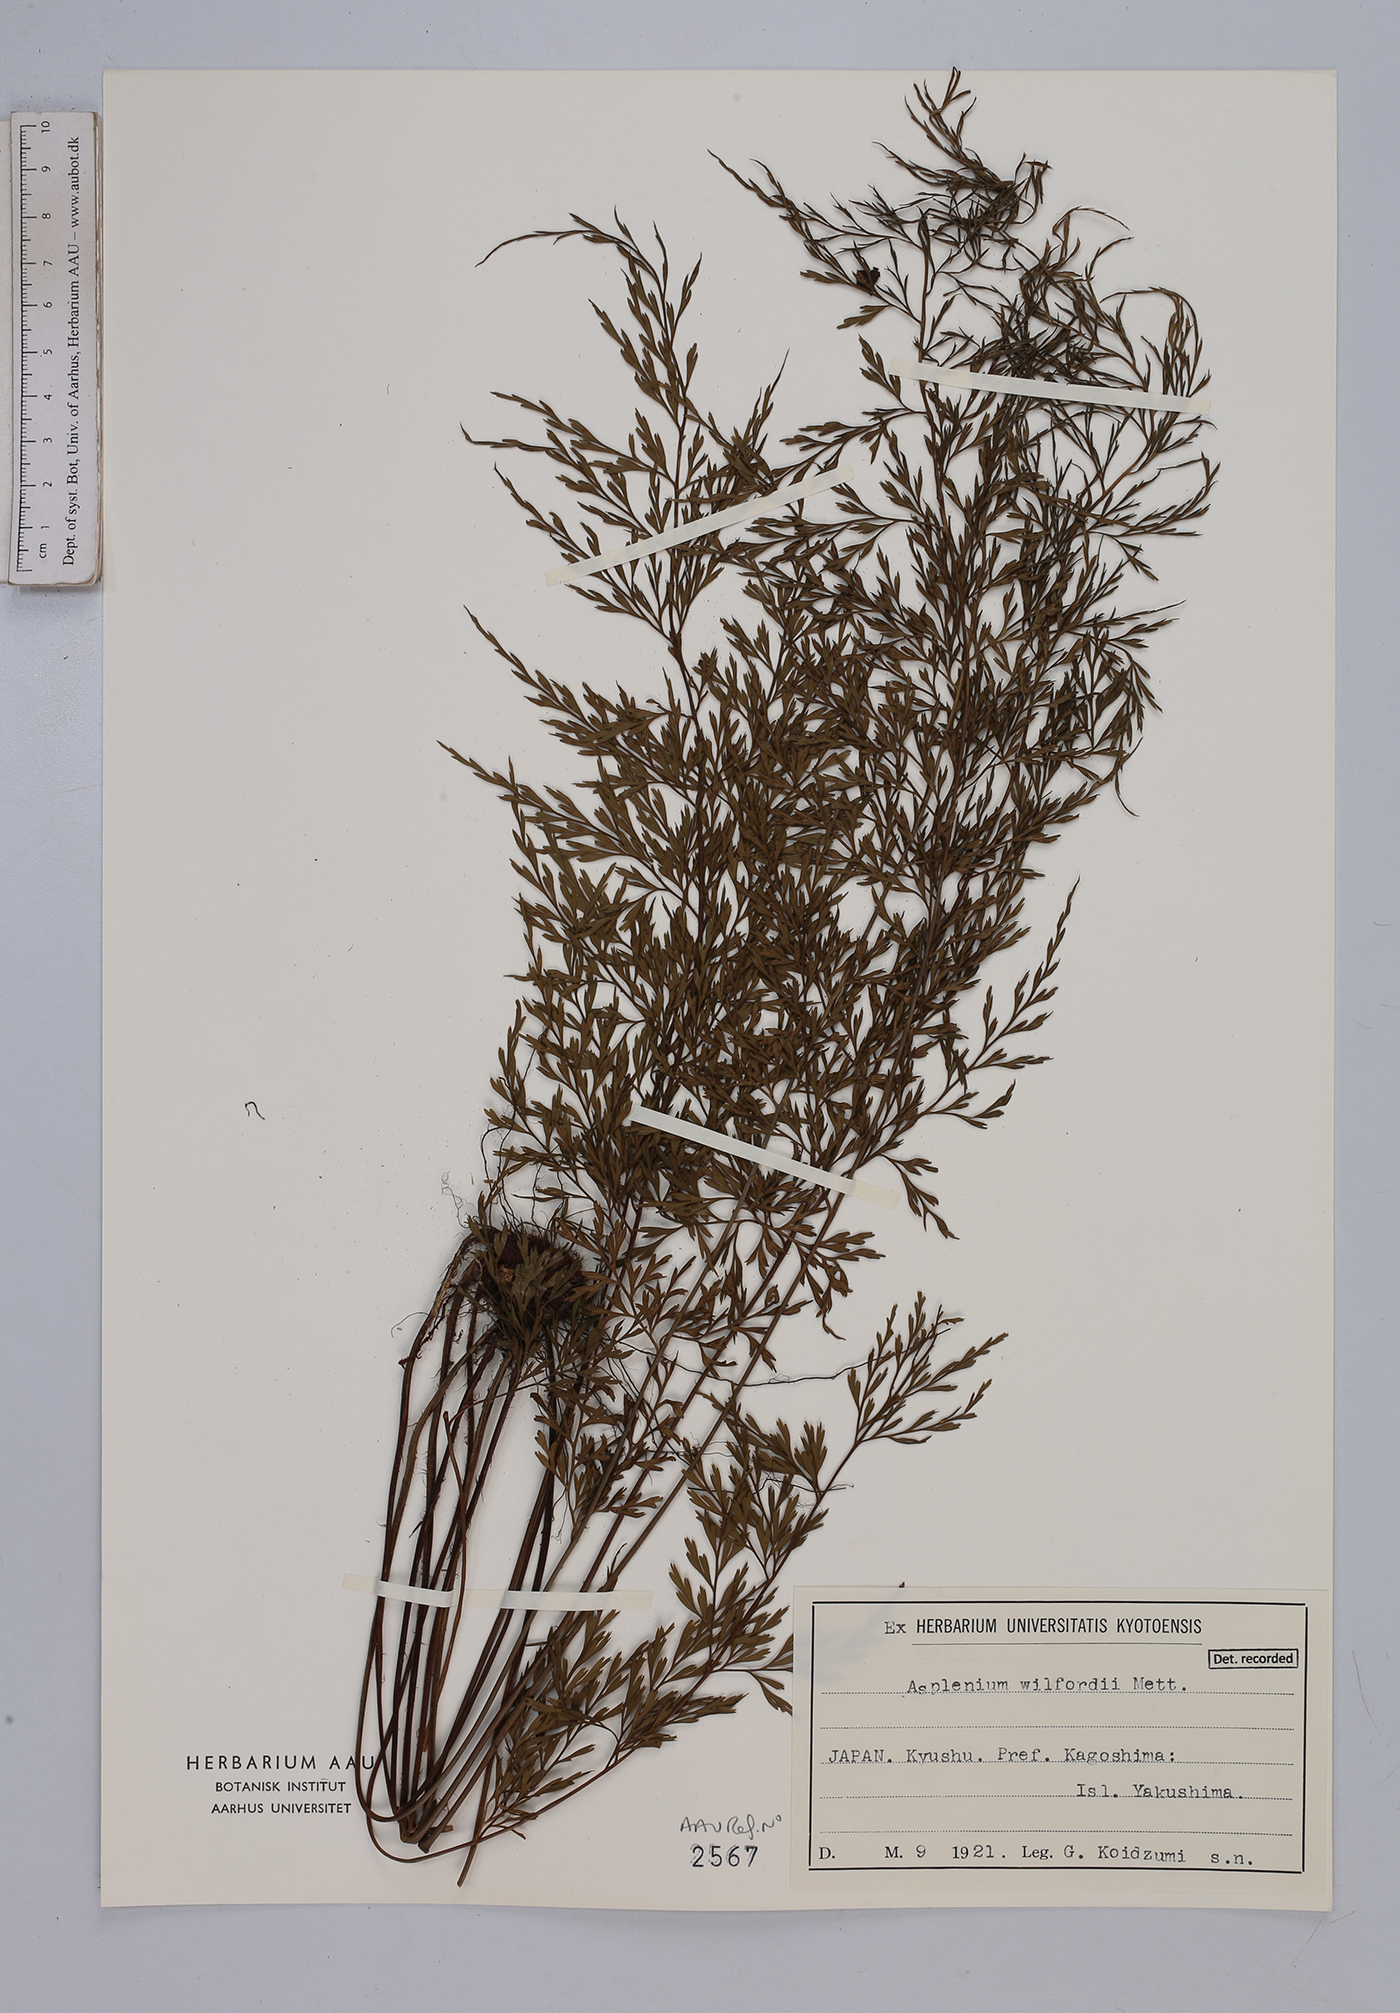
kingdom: Plantae
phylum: Tracheophyta
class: Polypodiopsida
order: Polypodiales
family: Aspleniaceae
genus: Asplenium
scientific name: Asplenium wilfordii
